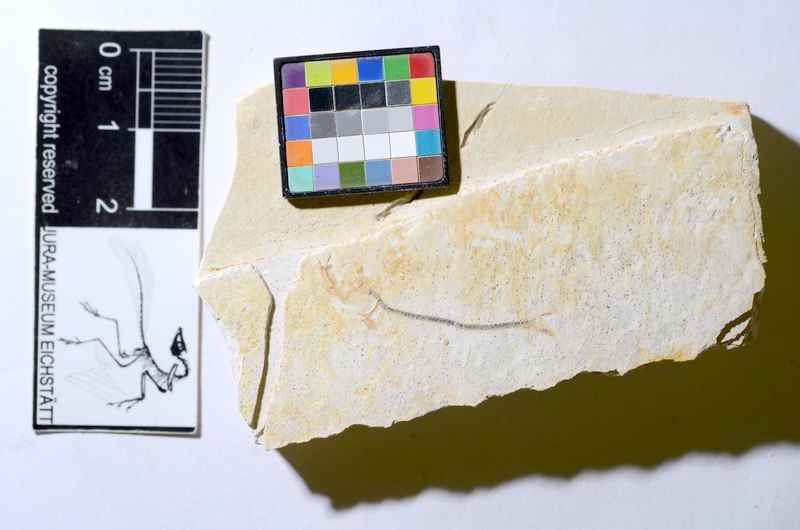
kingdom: Animalia
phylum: Chordata
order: Salmoniformes
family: Orthogonikleithridae
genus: Orthogonikleithrus
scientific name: Orthogonikleithrus hoelli
